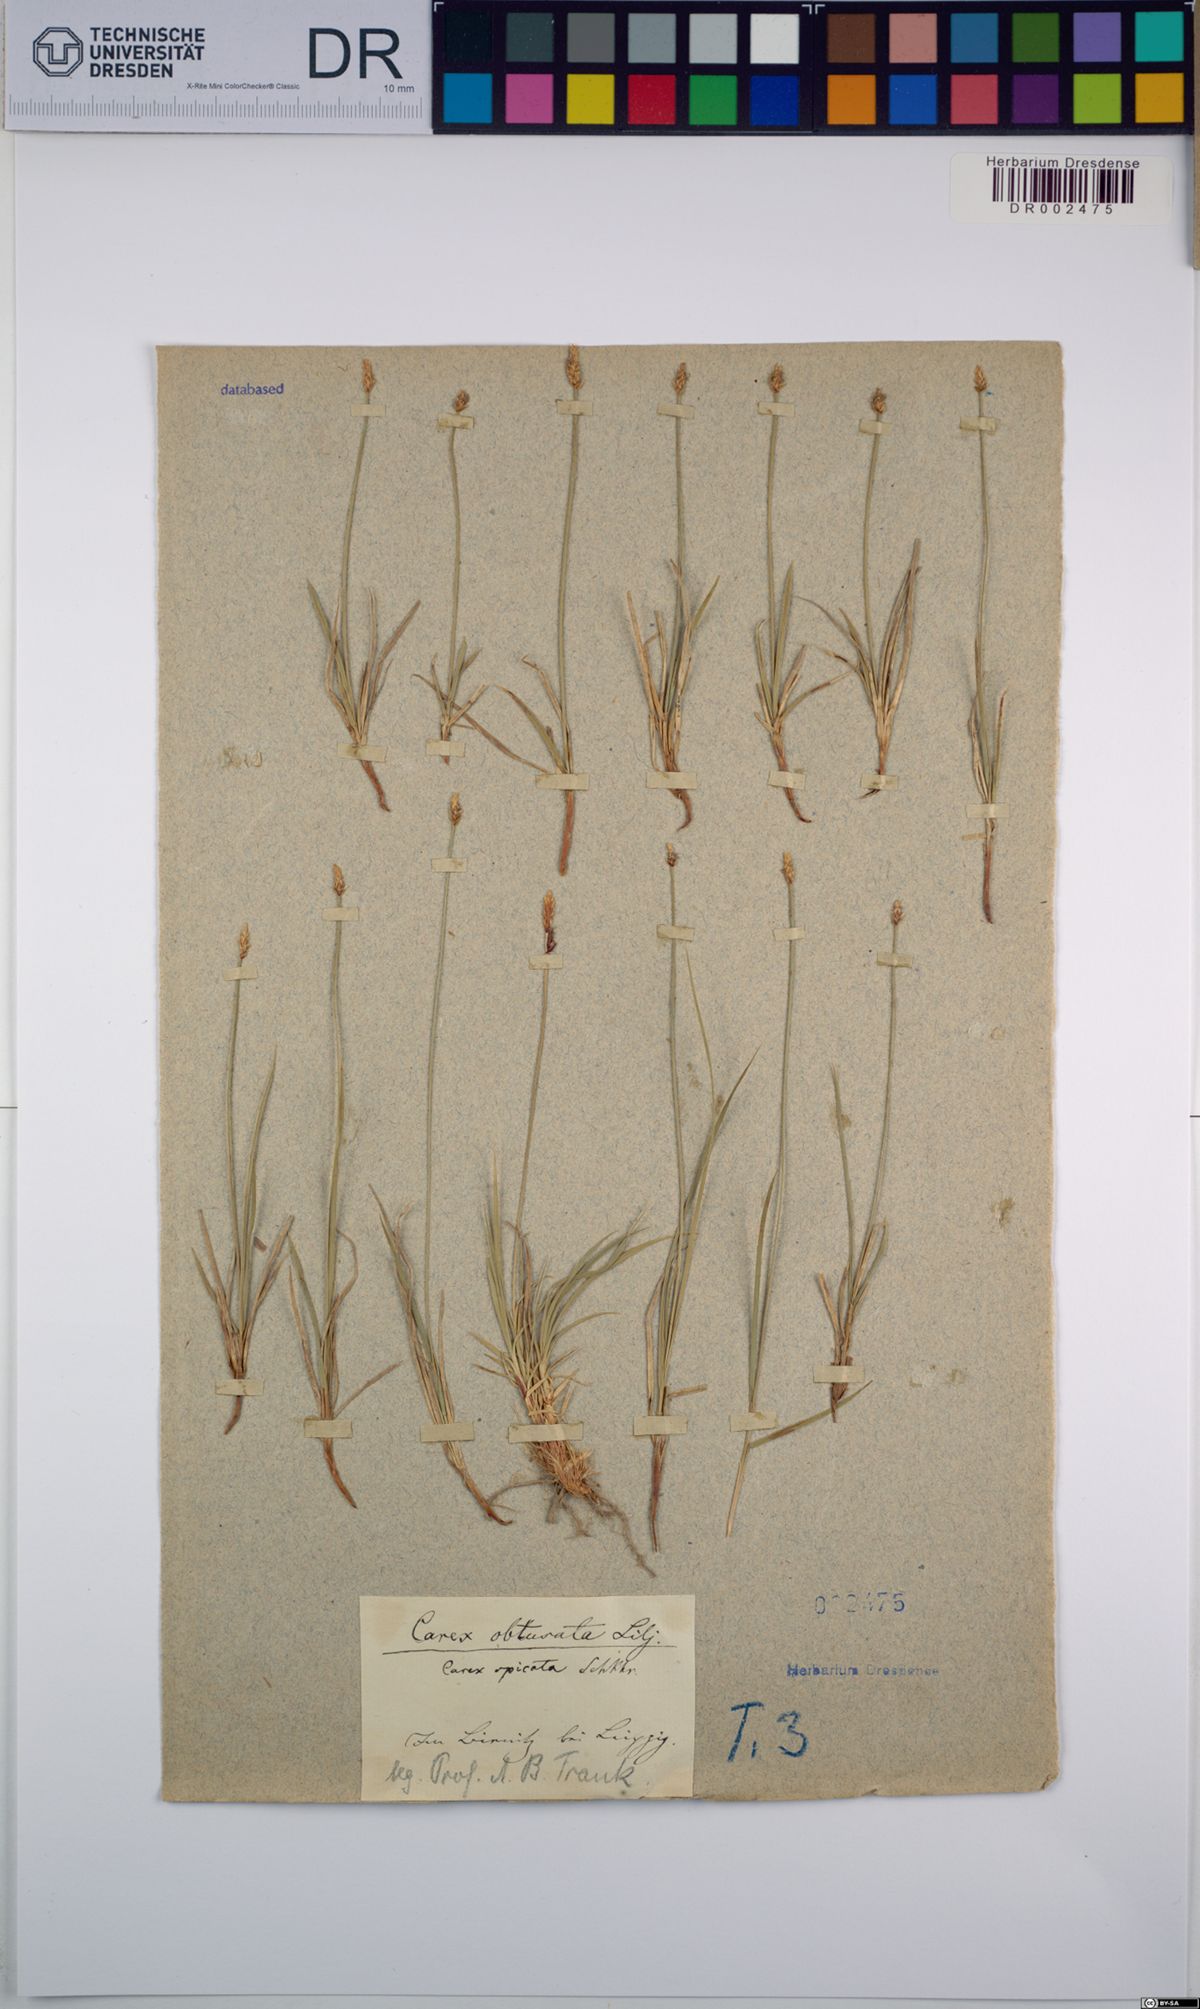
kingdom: Plantae
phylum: Tracheophyta
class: Liliopsida
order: Poales
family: Cyperaceae
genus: Carex
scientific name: Carex obtusata
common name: Blunt sedge
